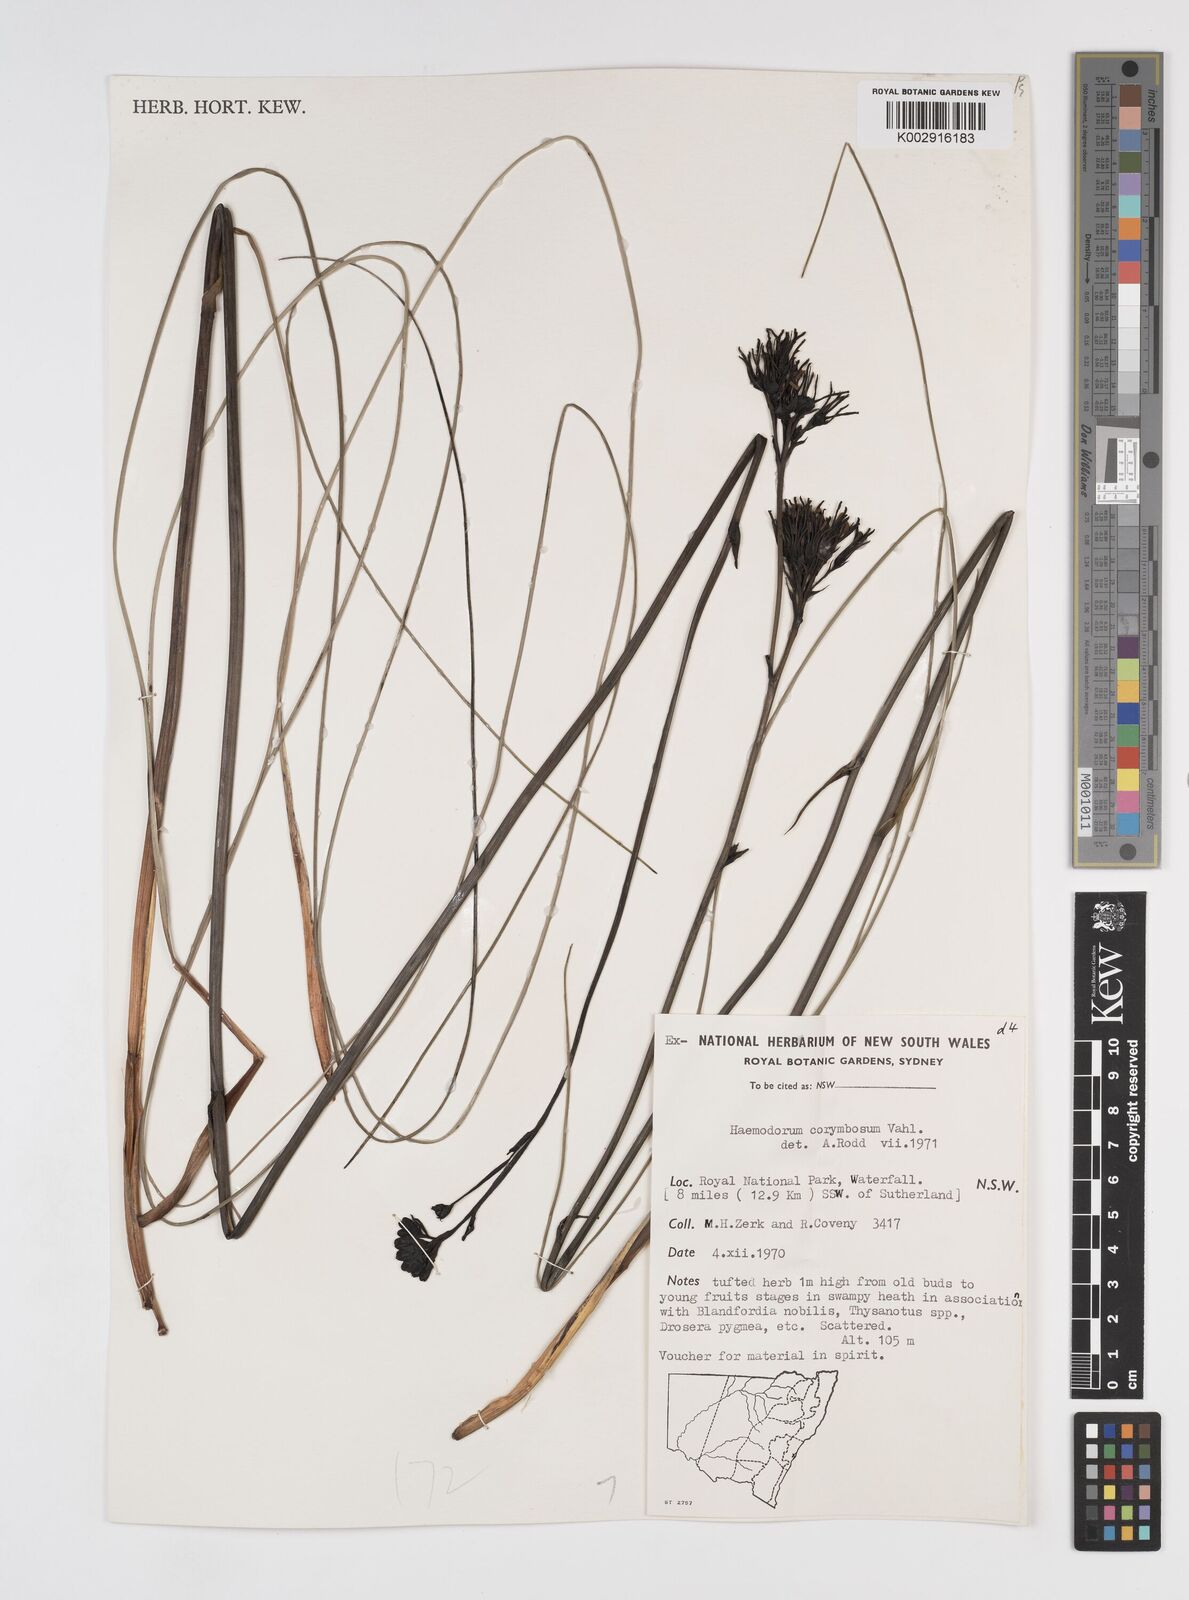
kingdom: Plantae
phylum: Tracheophyta
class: Liliopsida
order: Commelinales
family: Haemodoraceae
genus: Haemodorum
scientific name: Haemodorum corymbosum
